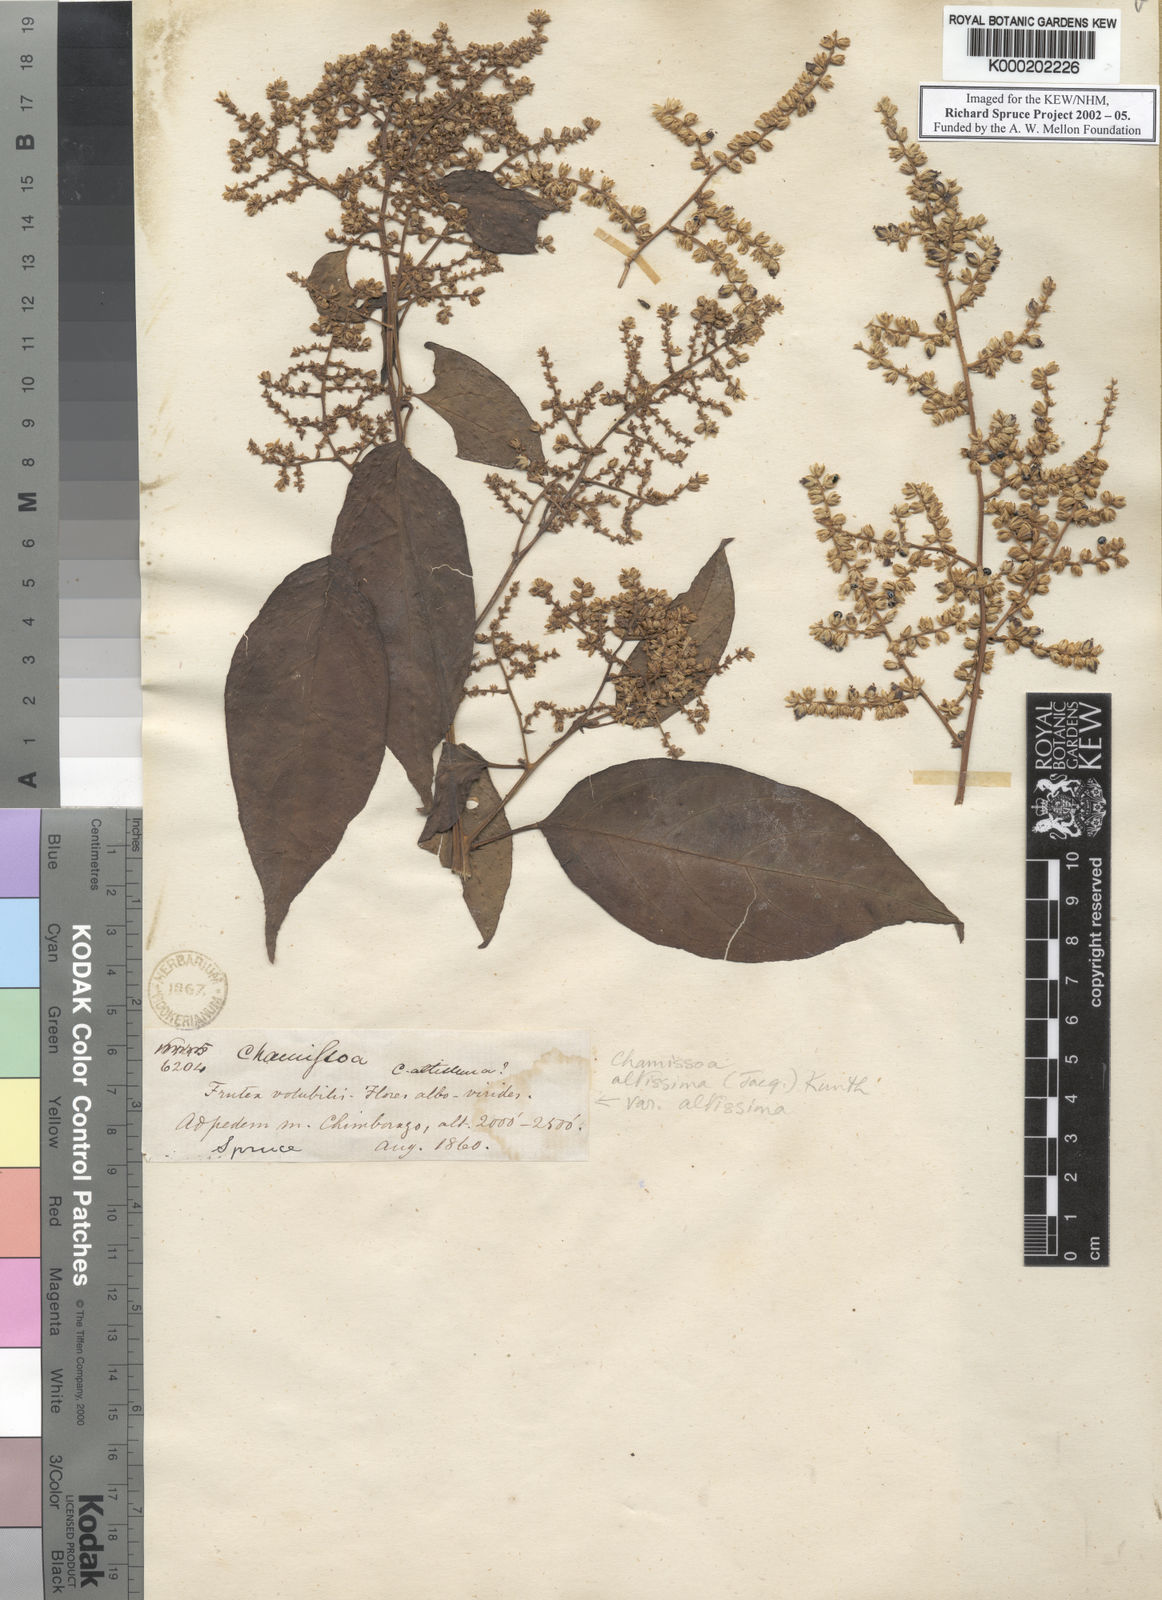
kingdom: Plantae
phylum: Tracheophyta
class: Magnoliopsida
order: Caryophyllales
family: Amaranthaceae
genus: Chamissoa
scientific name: Chamissoa altissima
